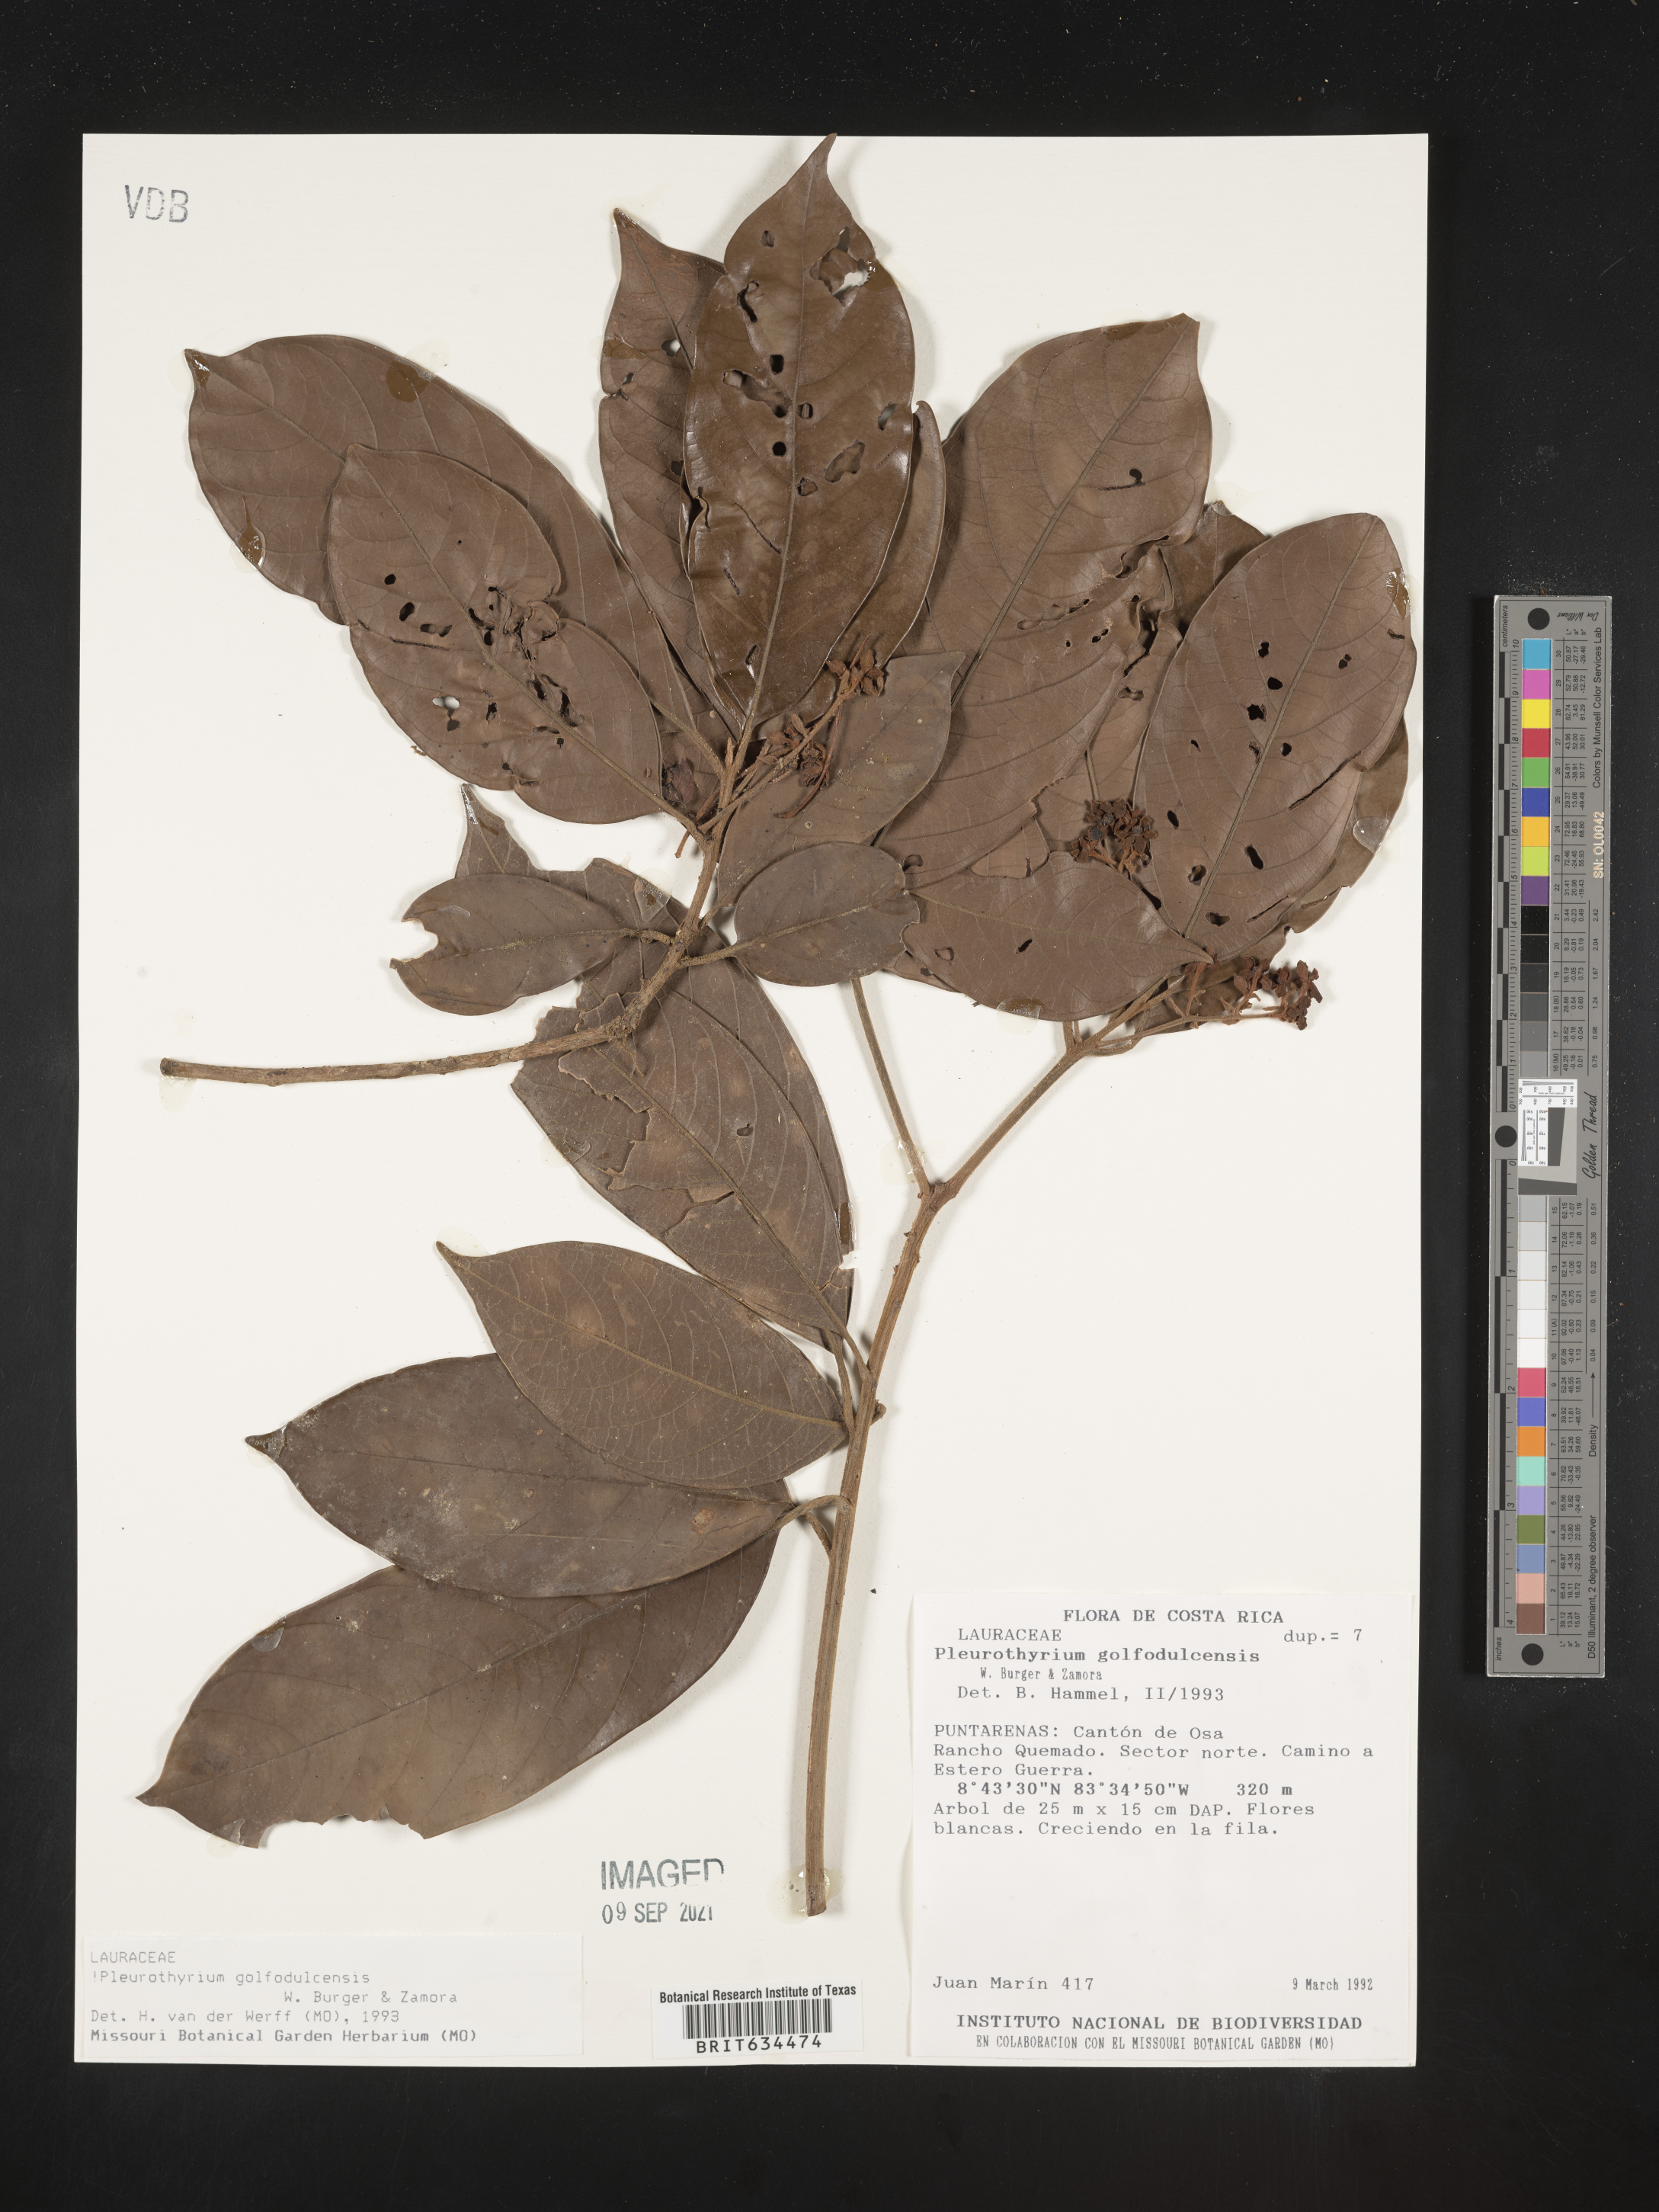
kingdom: Plantae
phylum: Tracheophyta
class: Magnoliopsida
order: Laurales
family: Lauraceae
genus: Pleurothyrium
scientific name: Pleurothyrium
